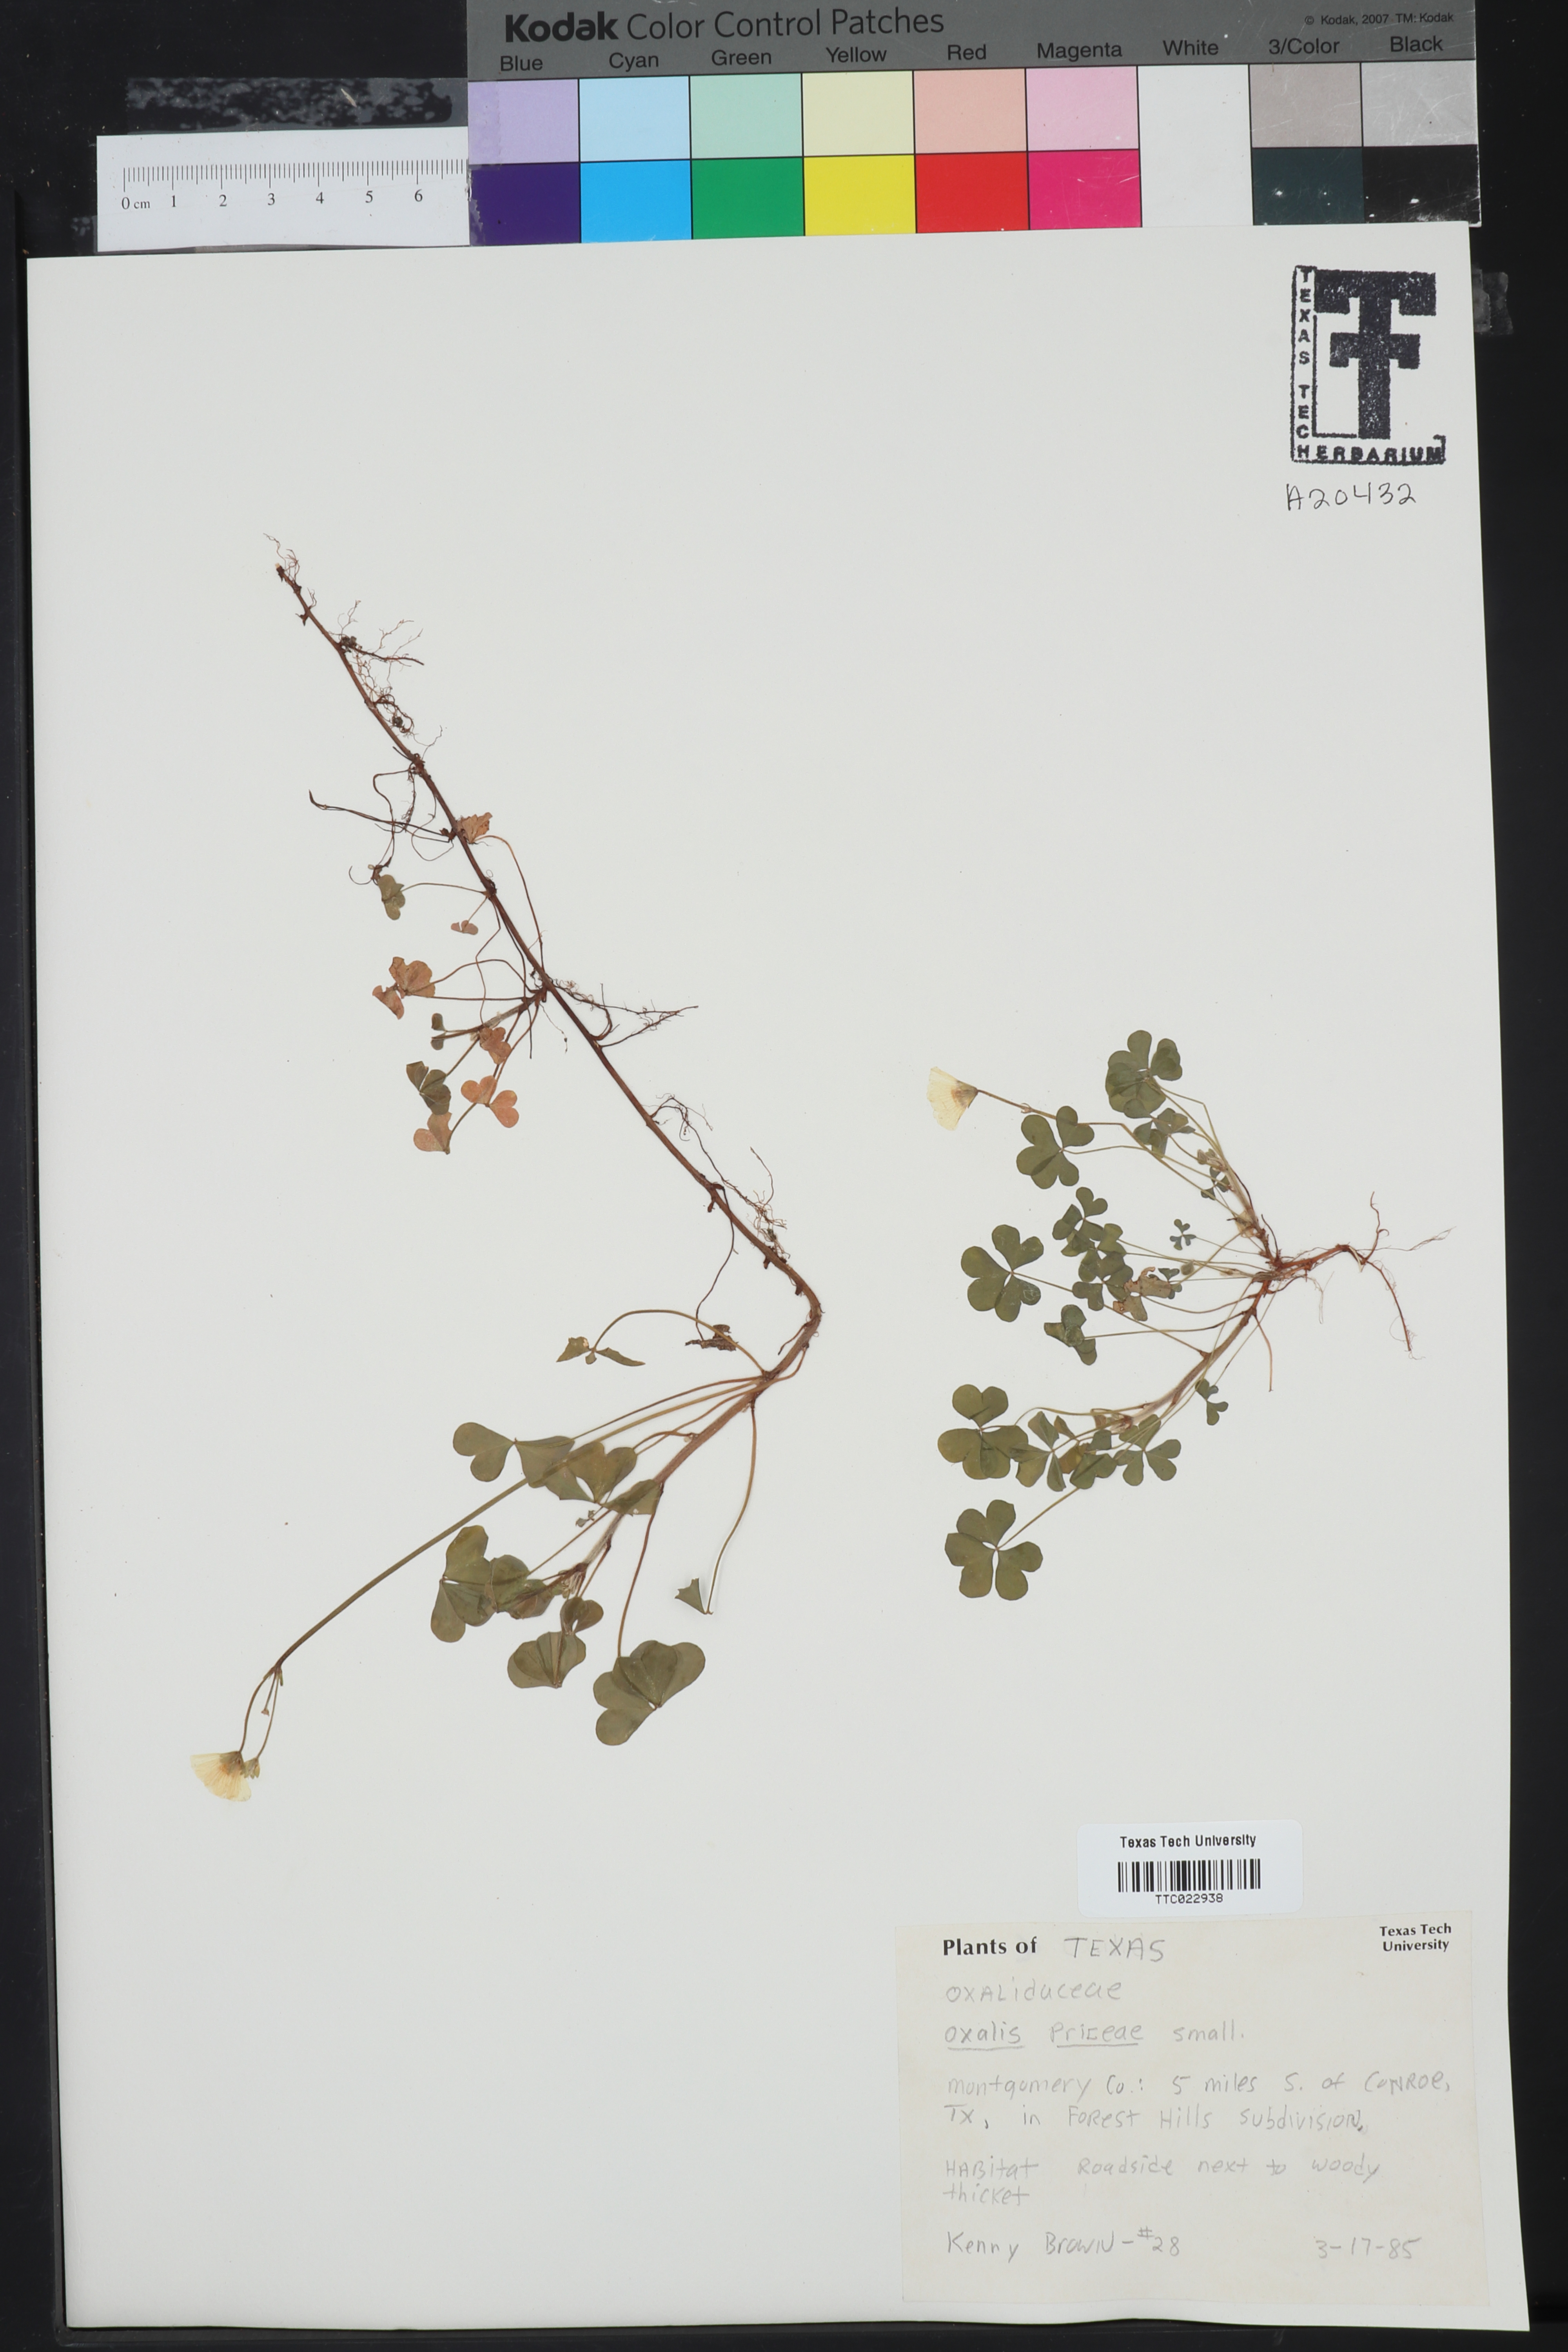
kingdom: Plantae
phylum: Tracheophyta
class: Magnoliopsida
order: Oxalidales
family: Oxalidaceae
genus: Oxalis
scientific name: Oxalis macrantha
